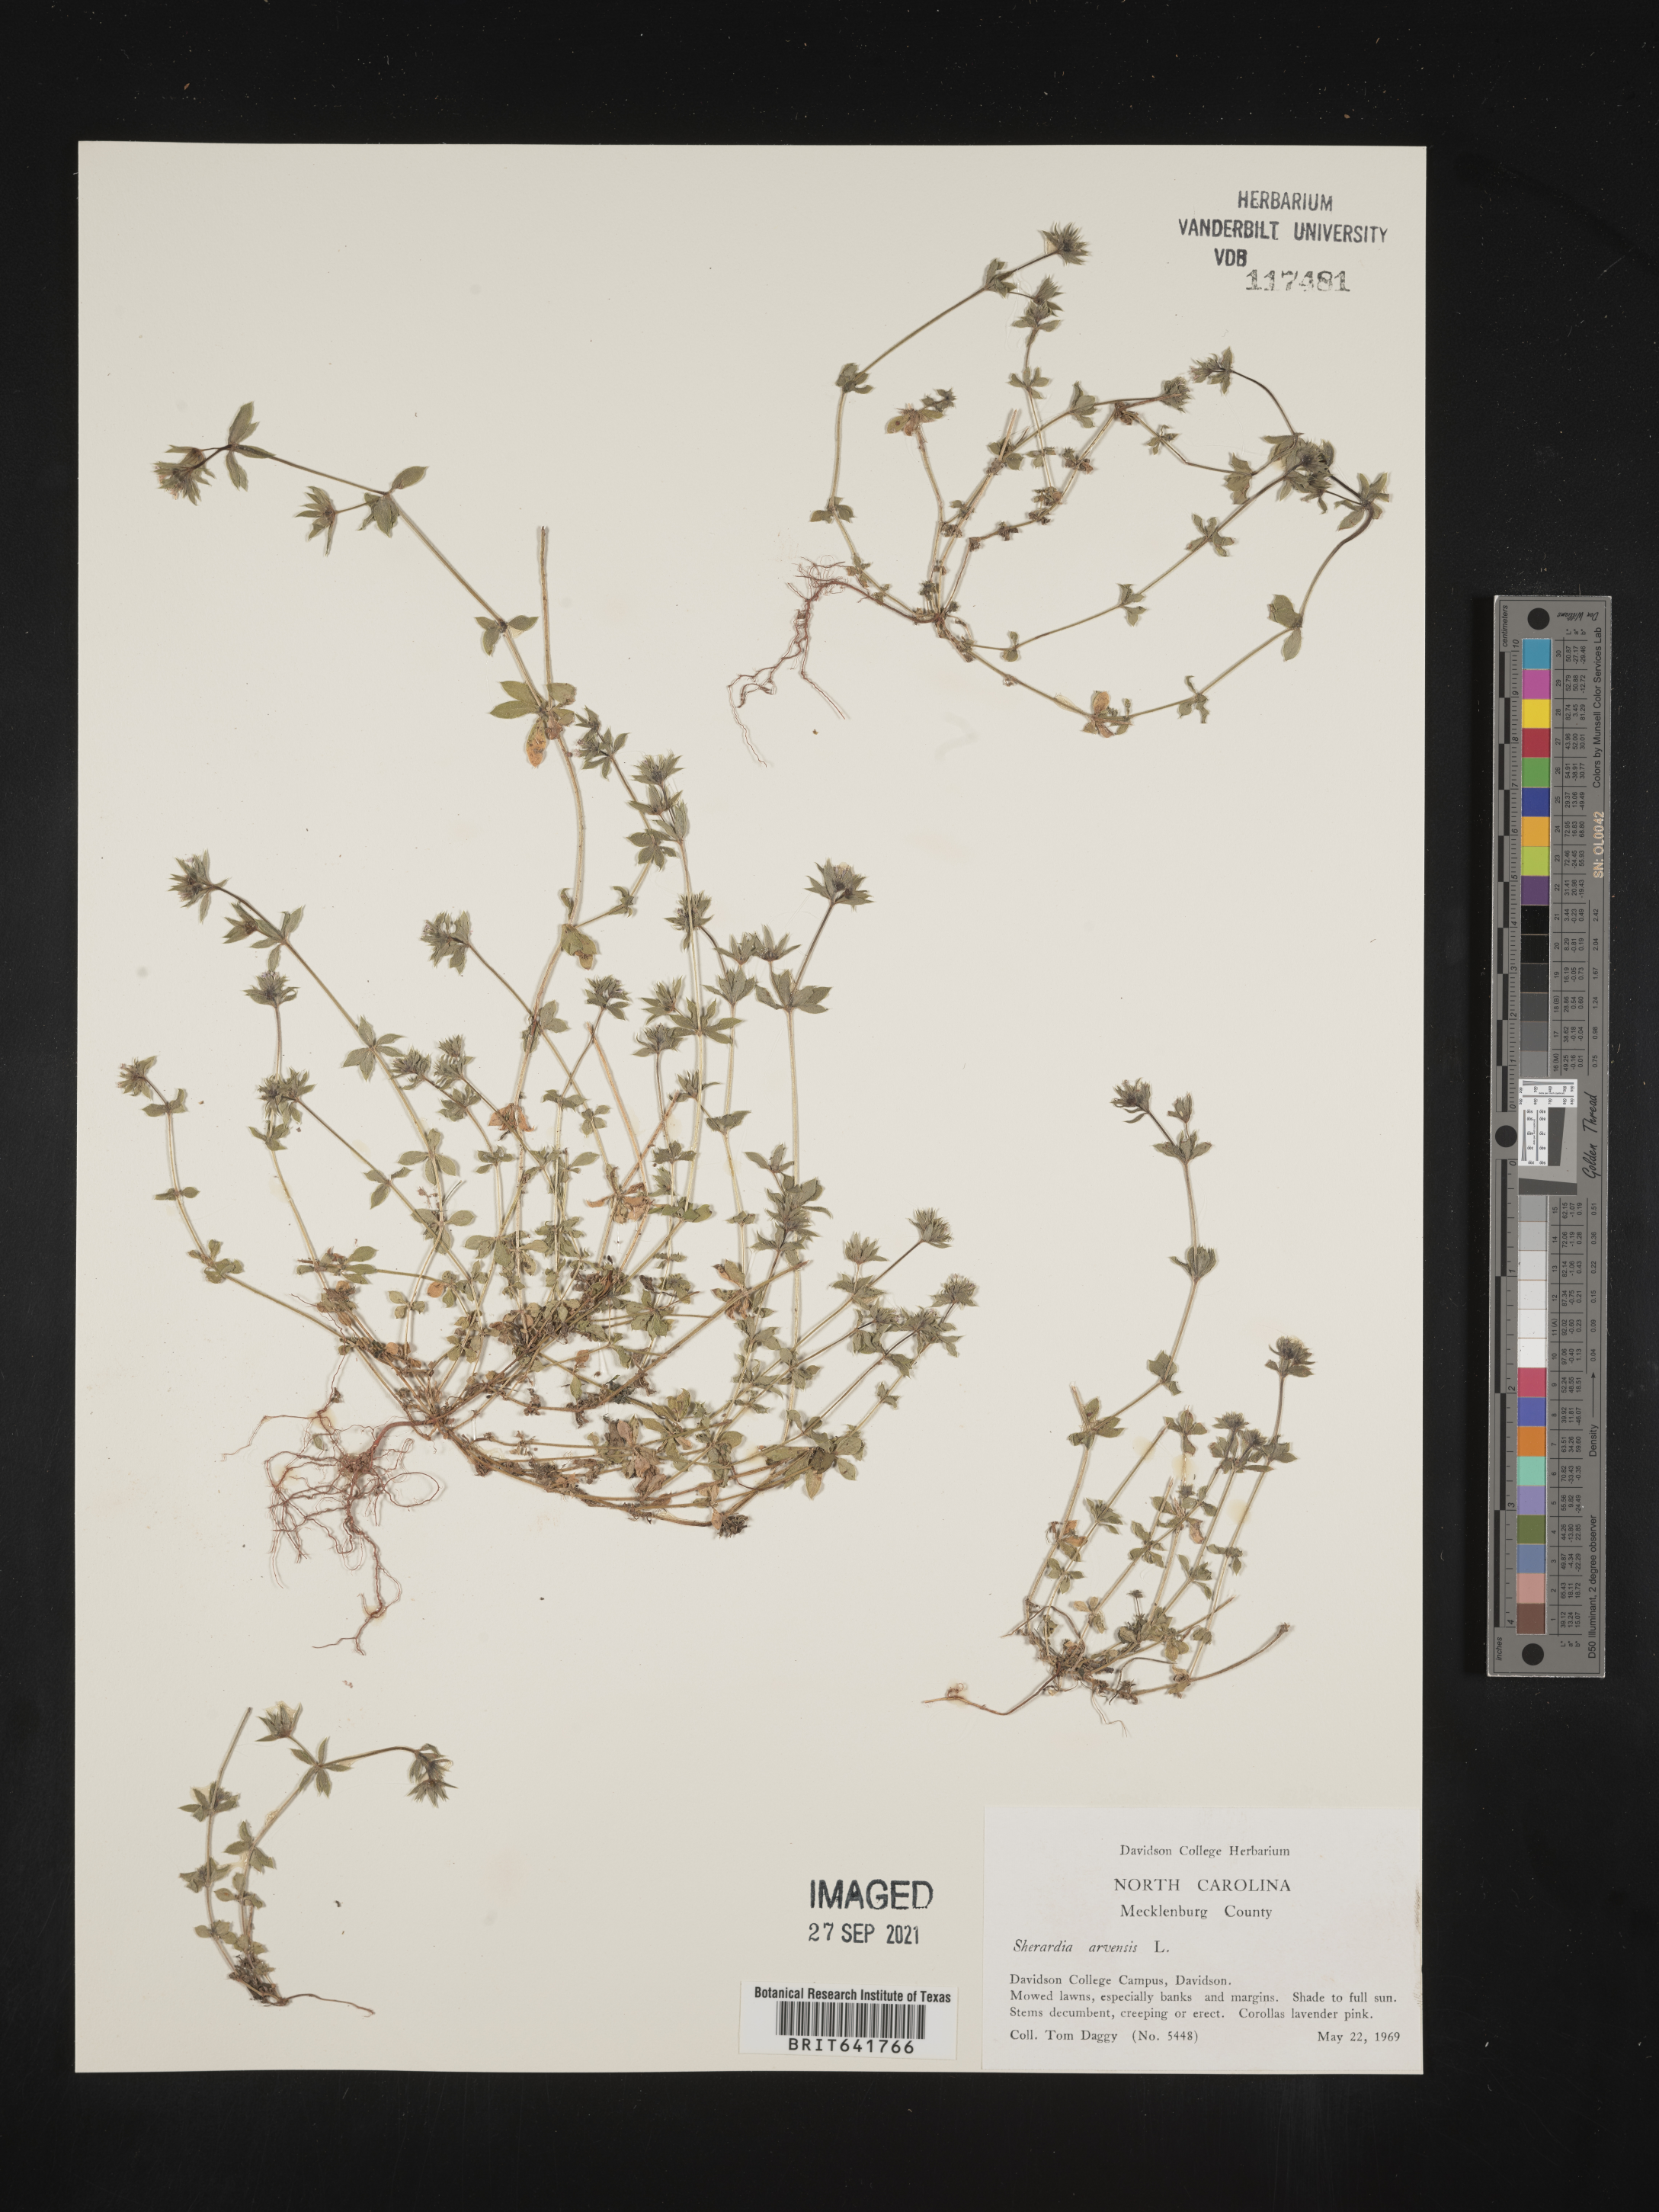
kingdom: Plantae
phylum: Tracheophyta
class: Magnoliopsida
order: Gentianales
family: Rubiaceae
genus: Sherardia
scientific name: Sherardia arvensis
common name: Field madder
